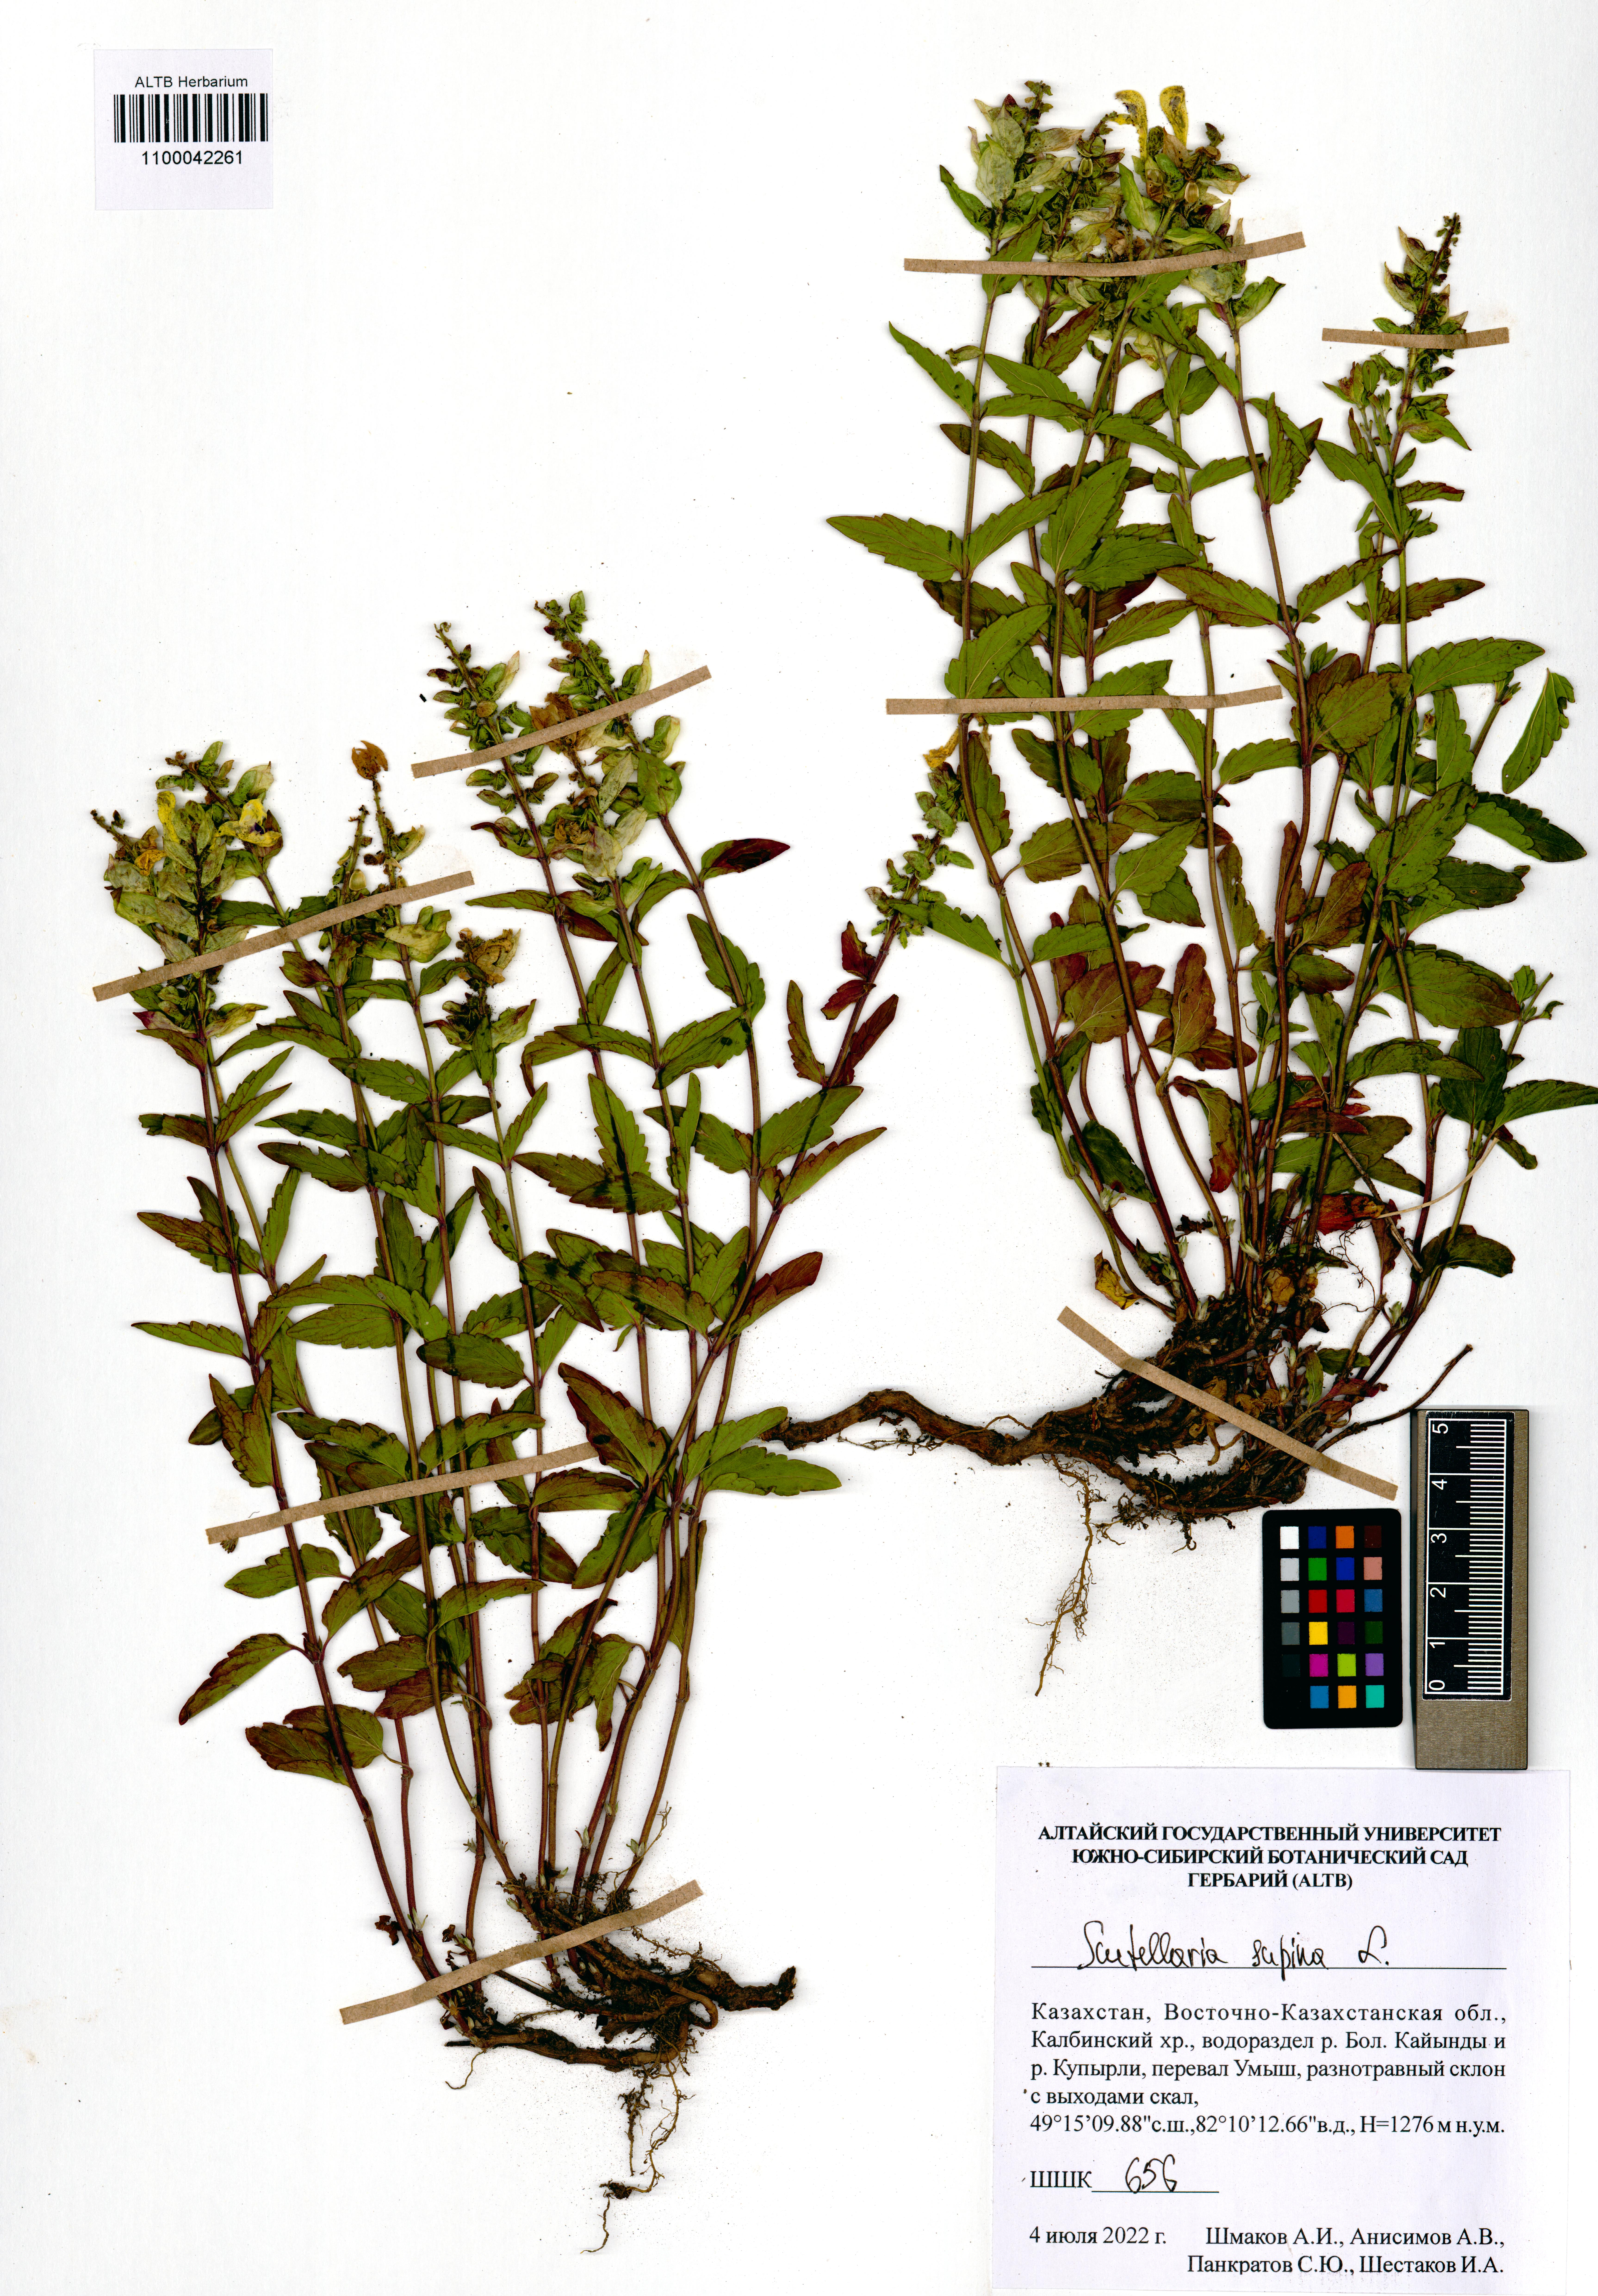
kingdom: Plantae
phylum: Tracheophyta
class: Magnoliopsida
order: Lamiales
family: Lamiaceae
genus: Scutellaria
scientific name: Scutellaria supina
